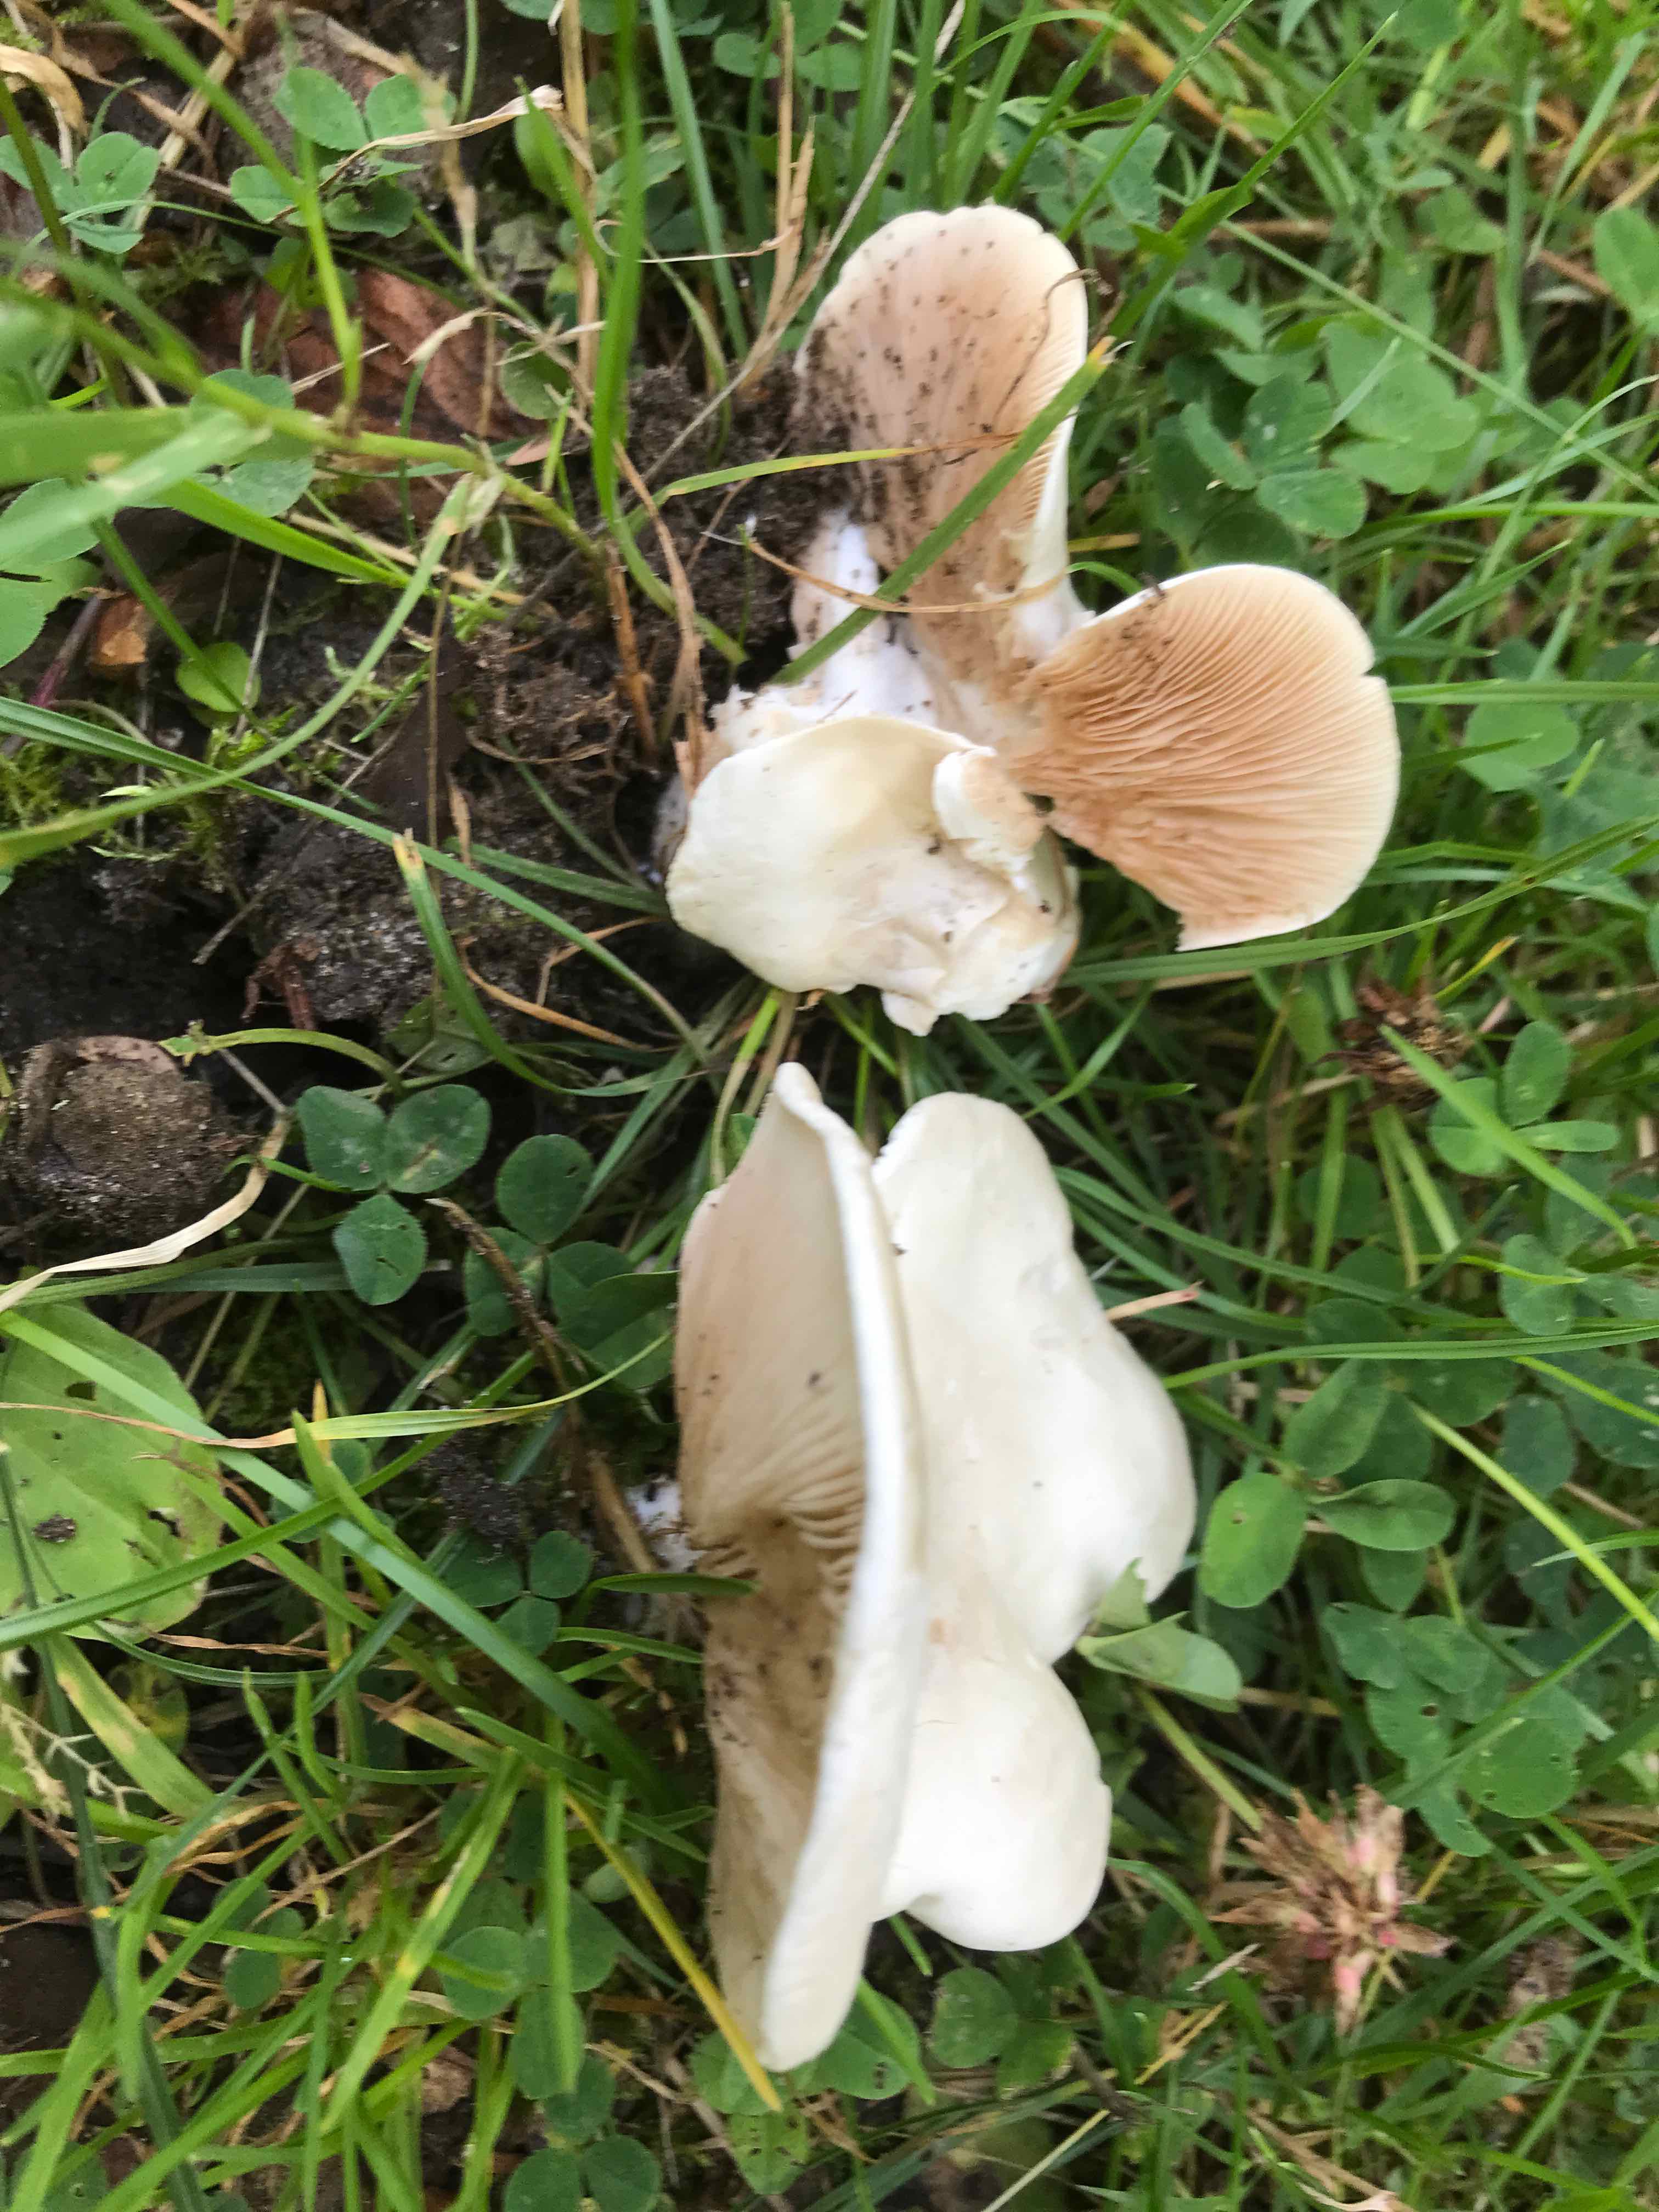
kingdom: Fungi
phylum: Basidiomycota
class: Agaricomycetes
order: Agaricales
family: Entolomataceae
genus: Clitopilus
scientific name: Clitopilus prunulus
